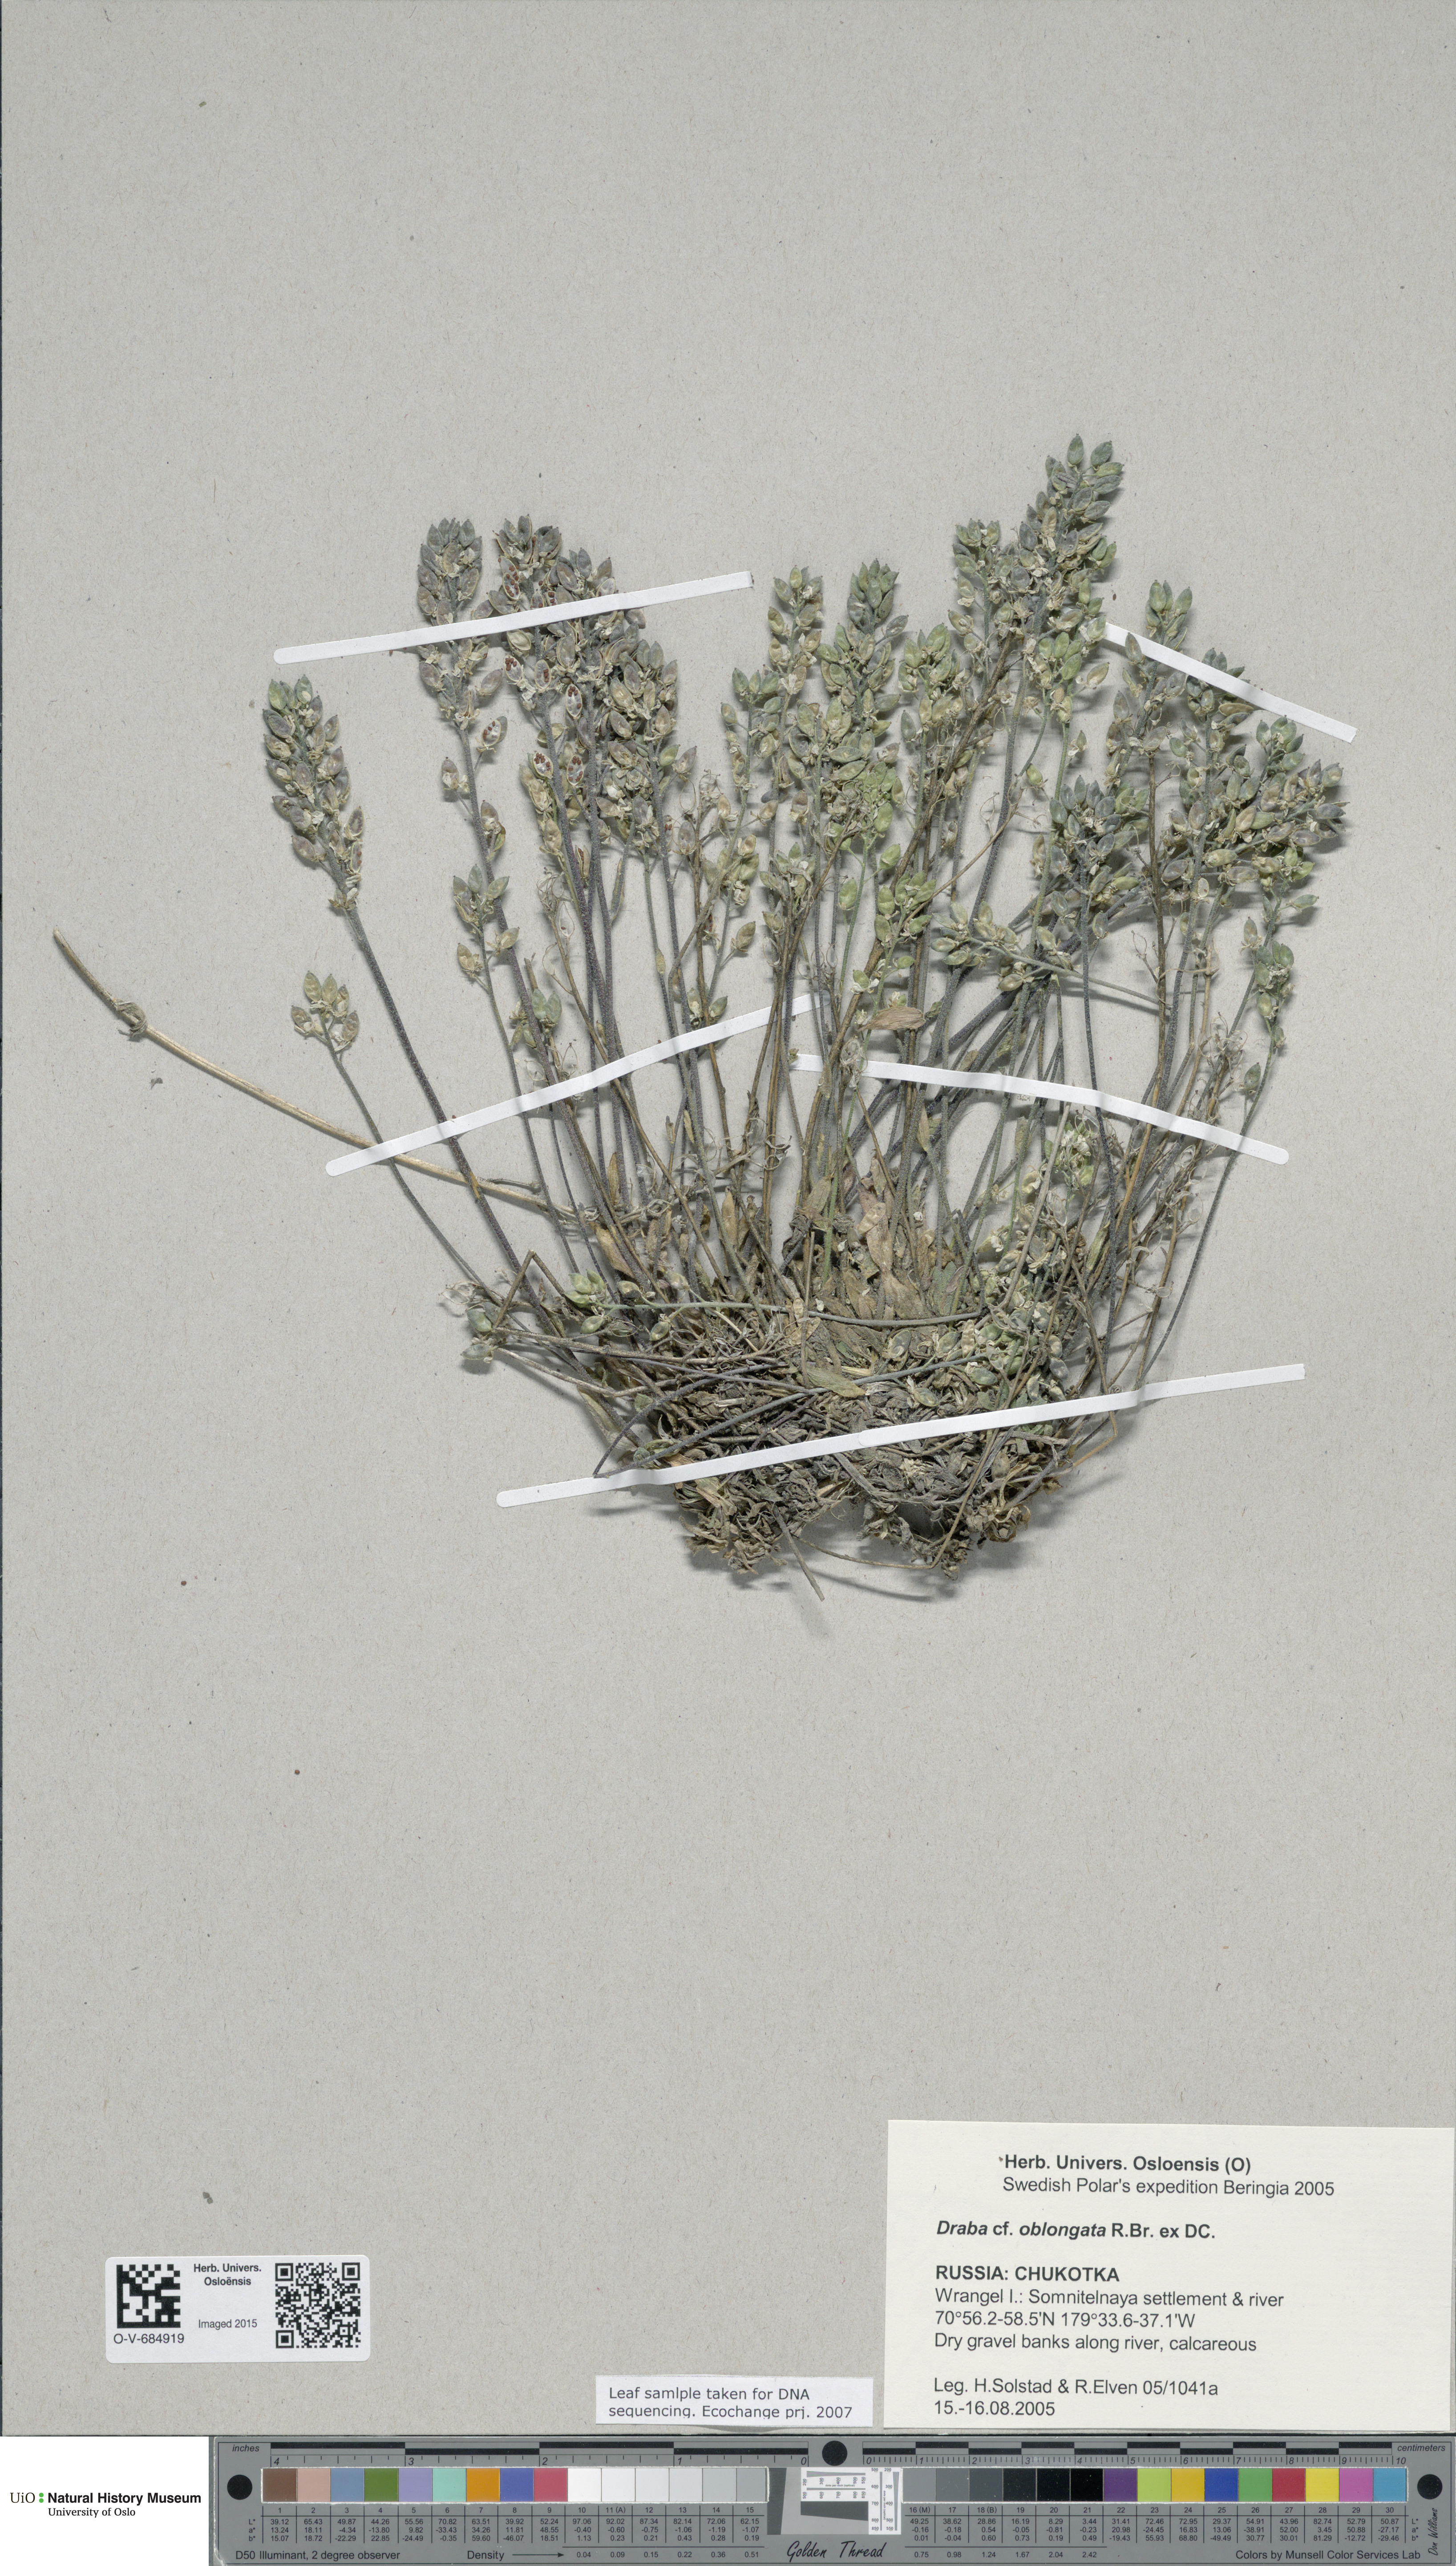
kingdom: Plantae
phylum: Tracheophyta
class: Magnoliopsida
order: Brassicales
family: Brassicaceae
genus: Draba
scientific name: Draba oblongata
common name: Canadian arctic draba
